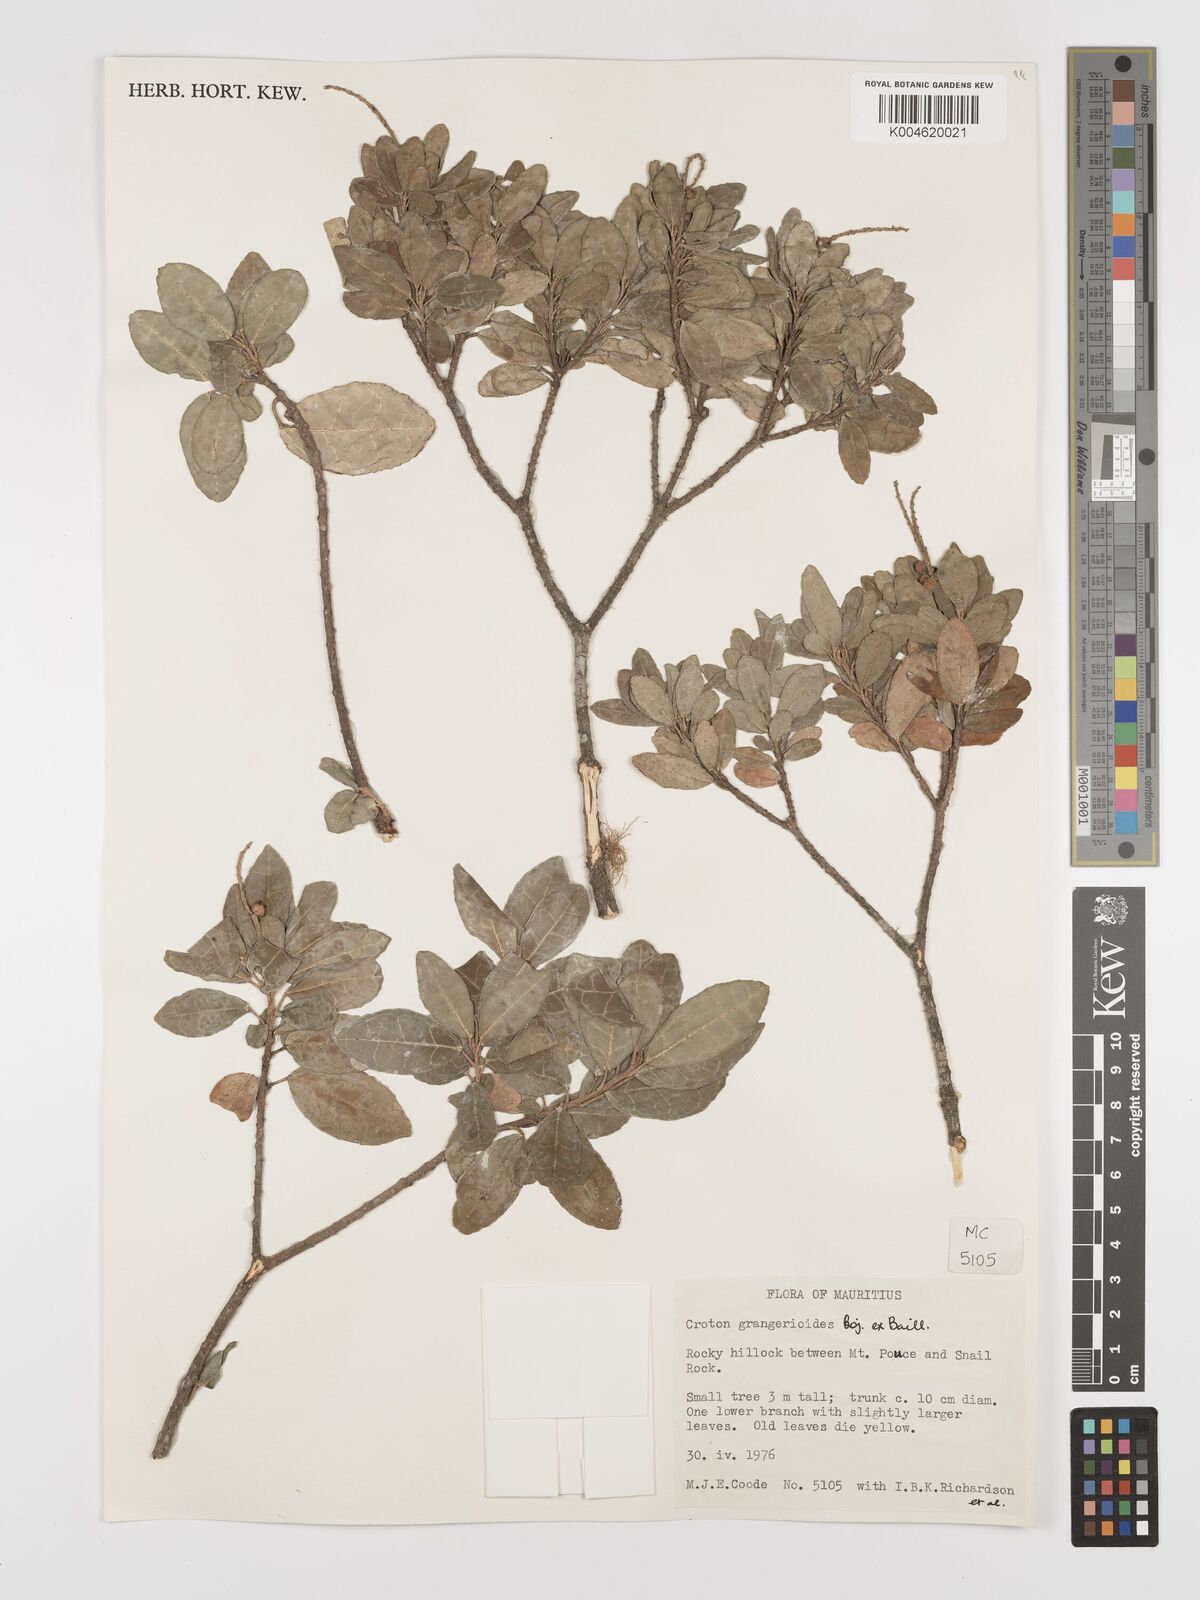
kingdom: Plantae
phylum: Tracheophyta
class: Magnoliopsida
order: Malpighiales
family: Euphorbiaceae
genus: Croton
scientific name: Croton grangerioides
